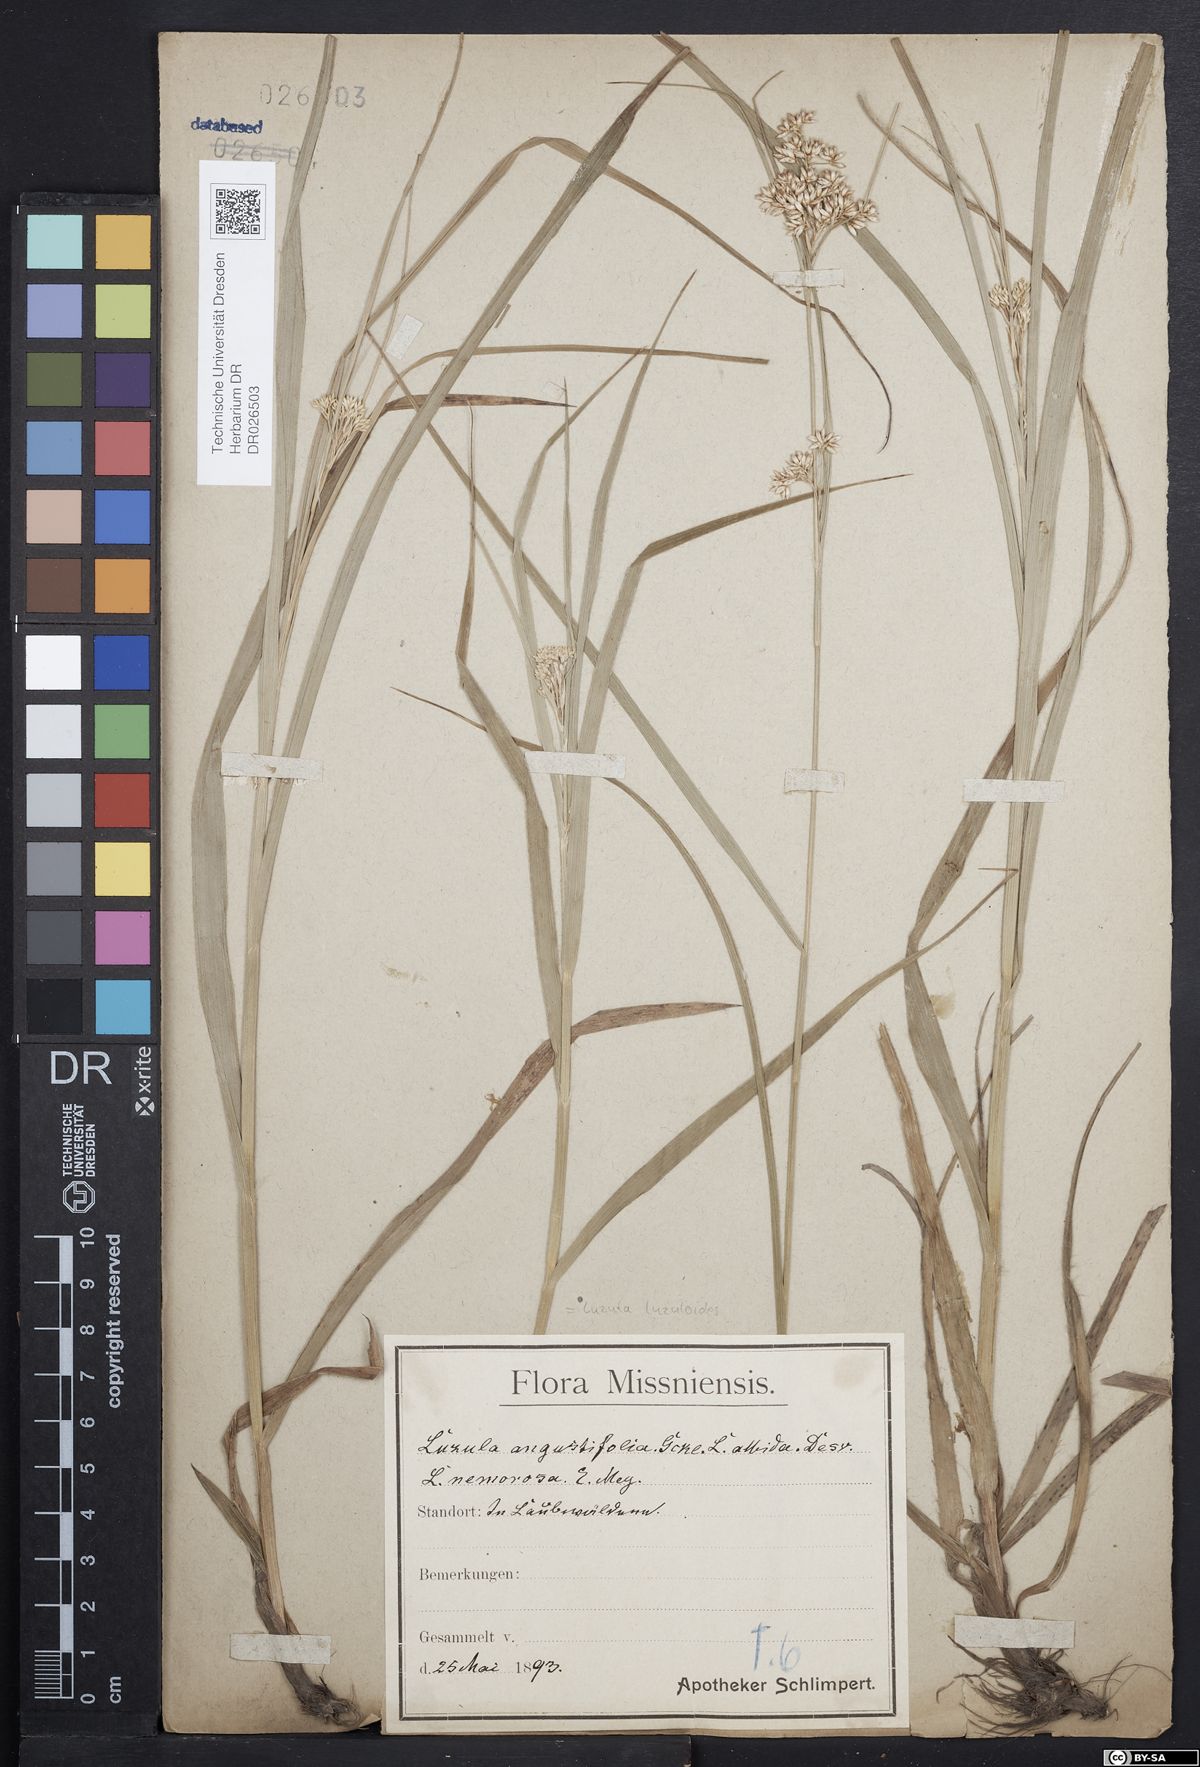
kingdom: Plantae
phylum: Tracheophyta
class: Liliopsida
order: Poales
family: Juncaceae
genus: Luzula
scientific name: Luzula luzuloides
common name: White wood-rush
